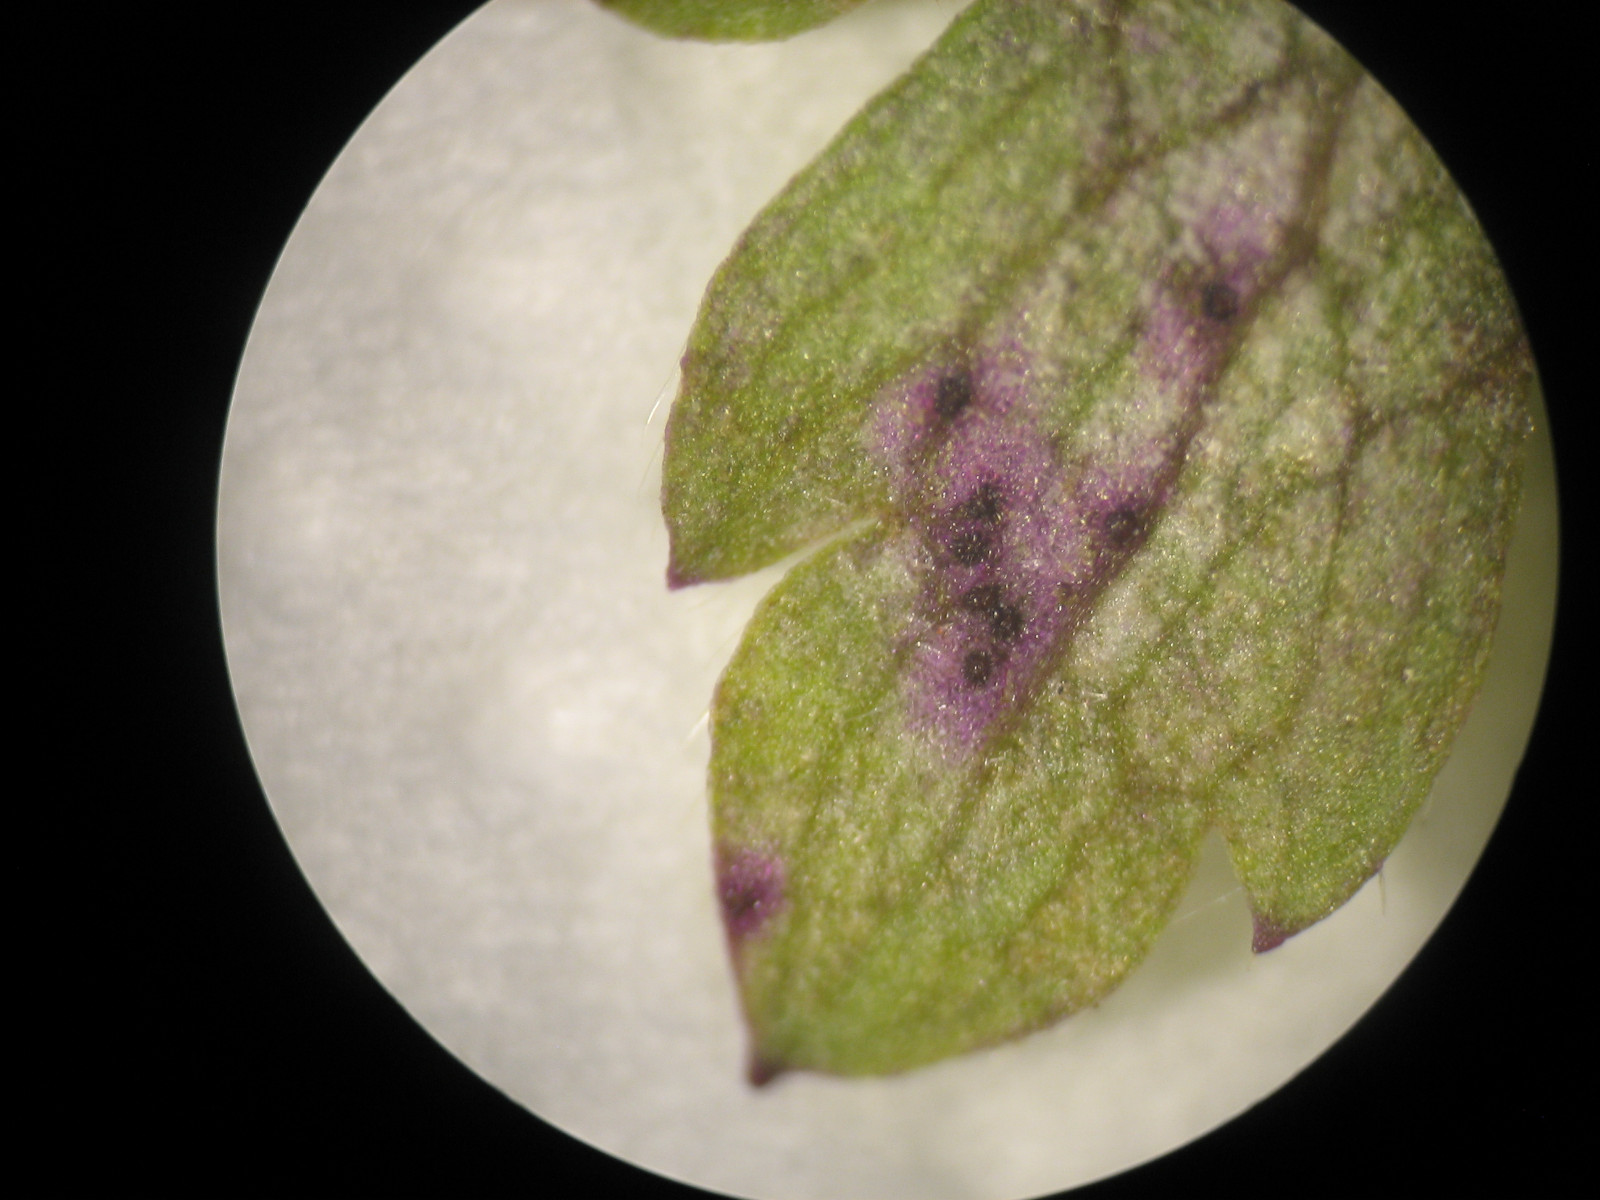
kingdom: Fungi
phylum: Chytridiomycota
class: Chytridiomycetes
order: Chytridiales
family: Synchytriaceae
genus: Synchytrium
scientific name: Synchytrium anemones
